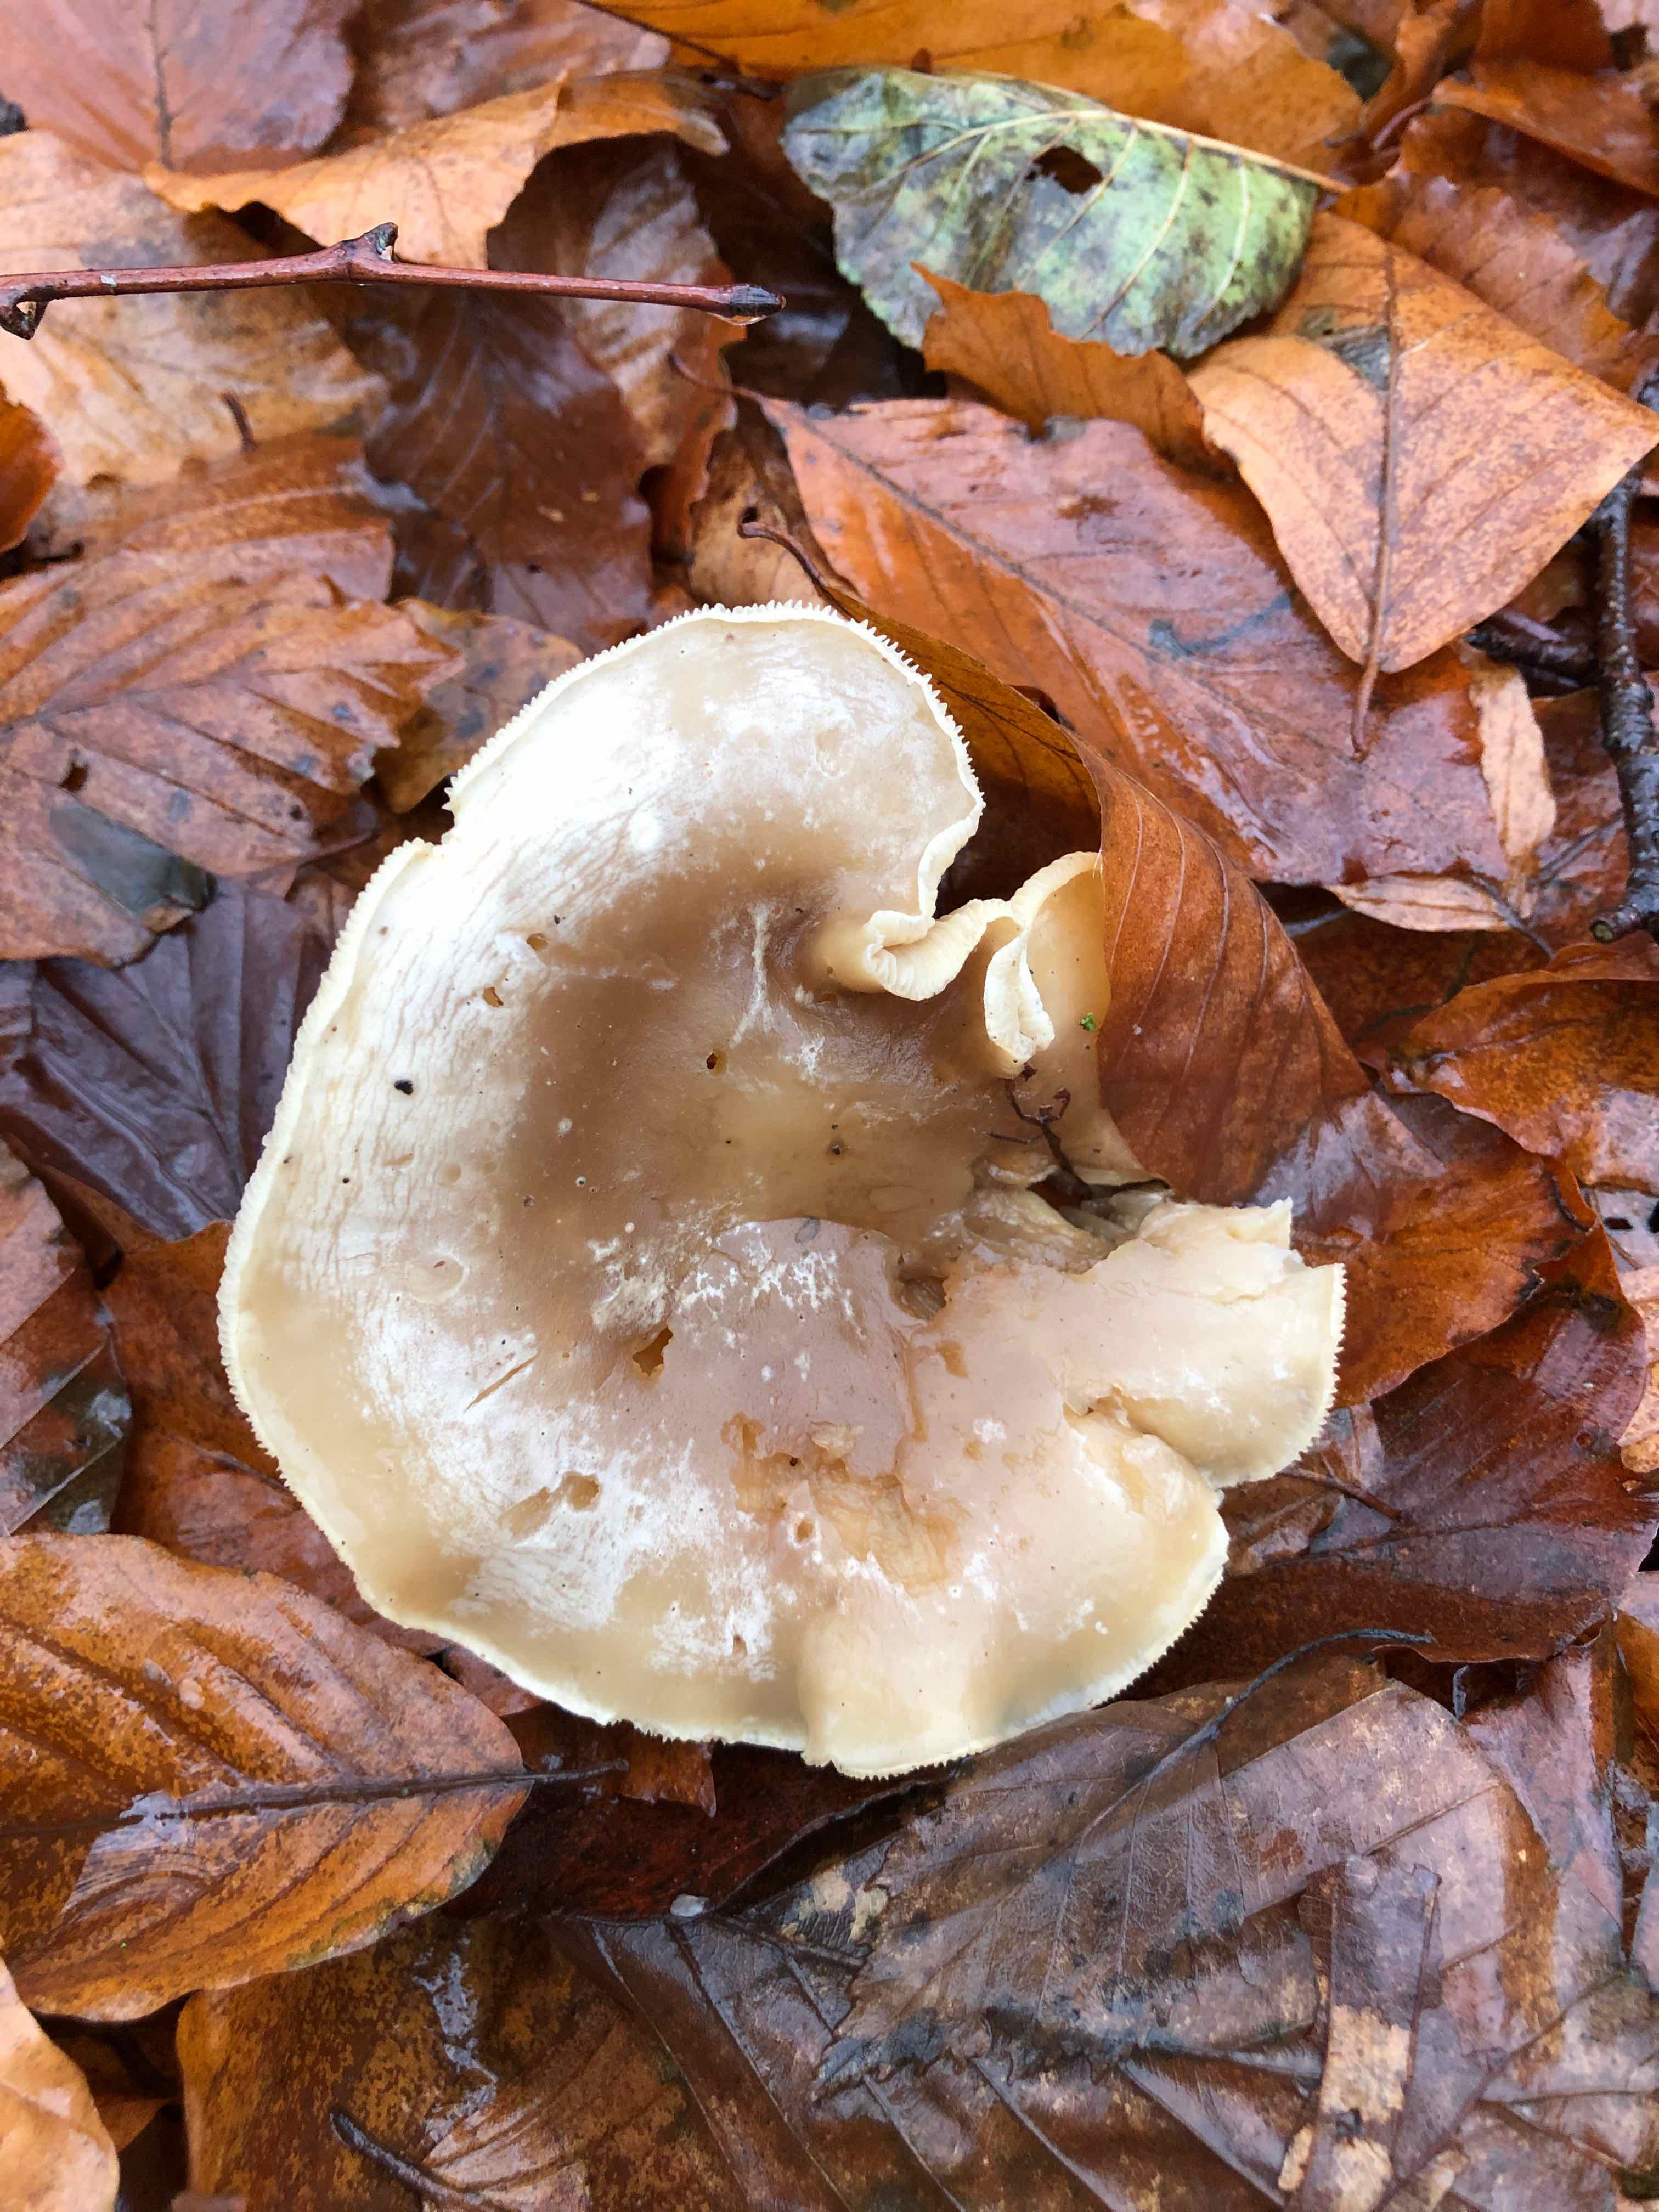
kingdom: Fungi
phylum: Basidiomycota
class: Agaricomycetes
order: Agaricales
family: Tricholomataceae
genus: Clitocybe
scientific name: Clitocybe nebularis
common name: tåge-tragthat
